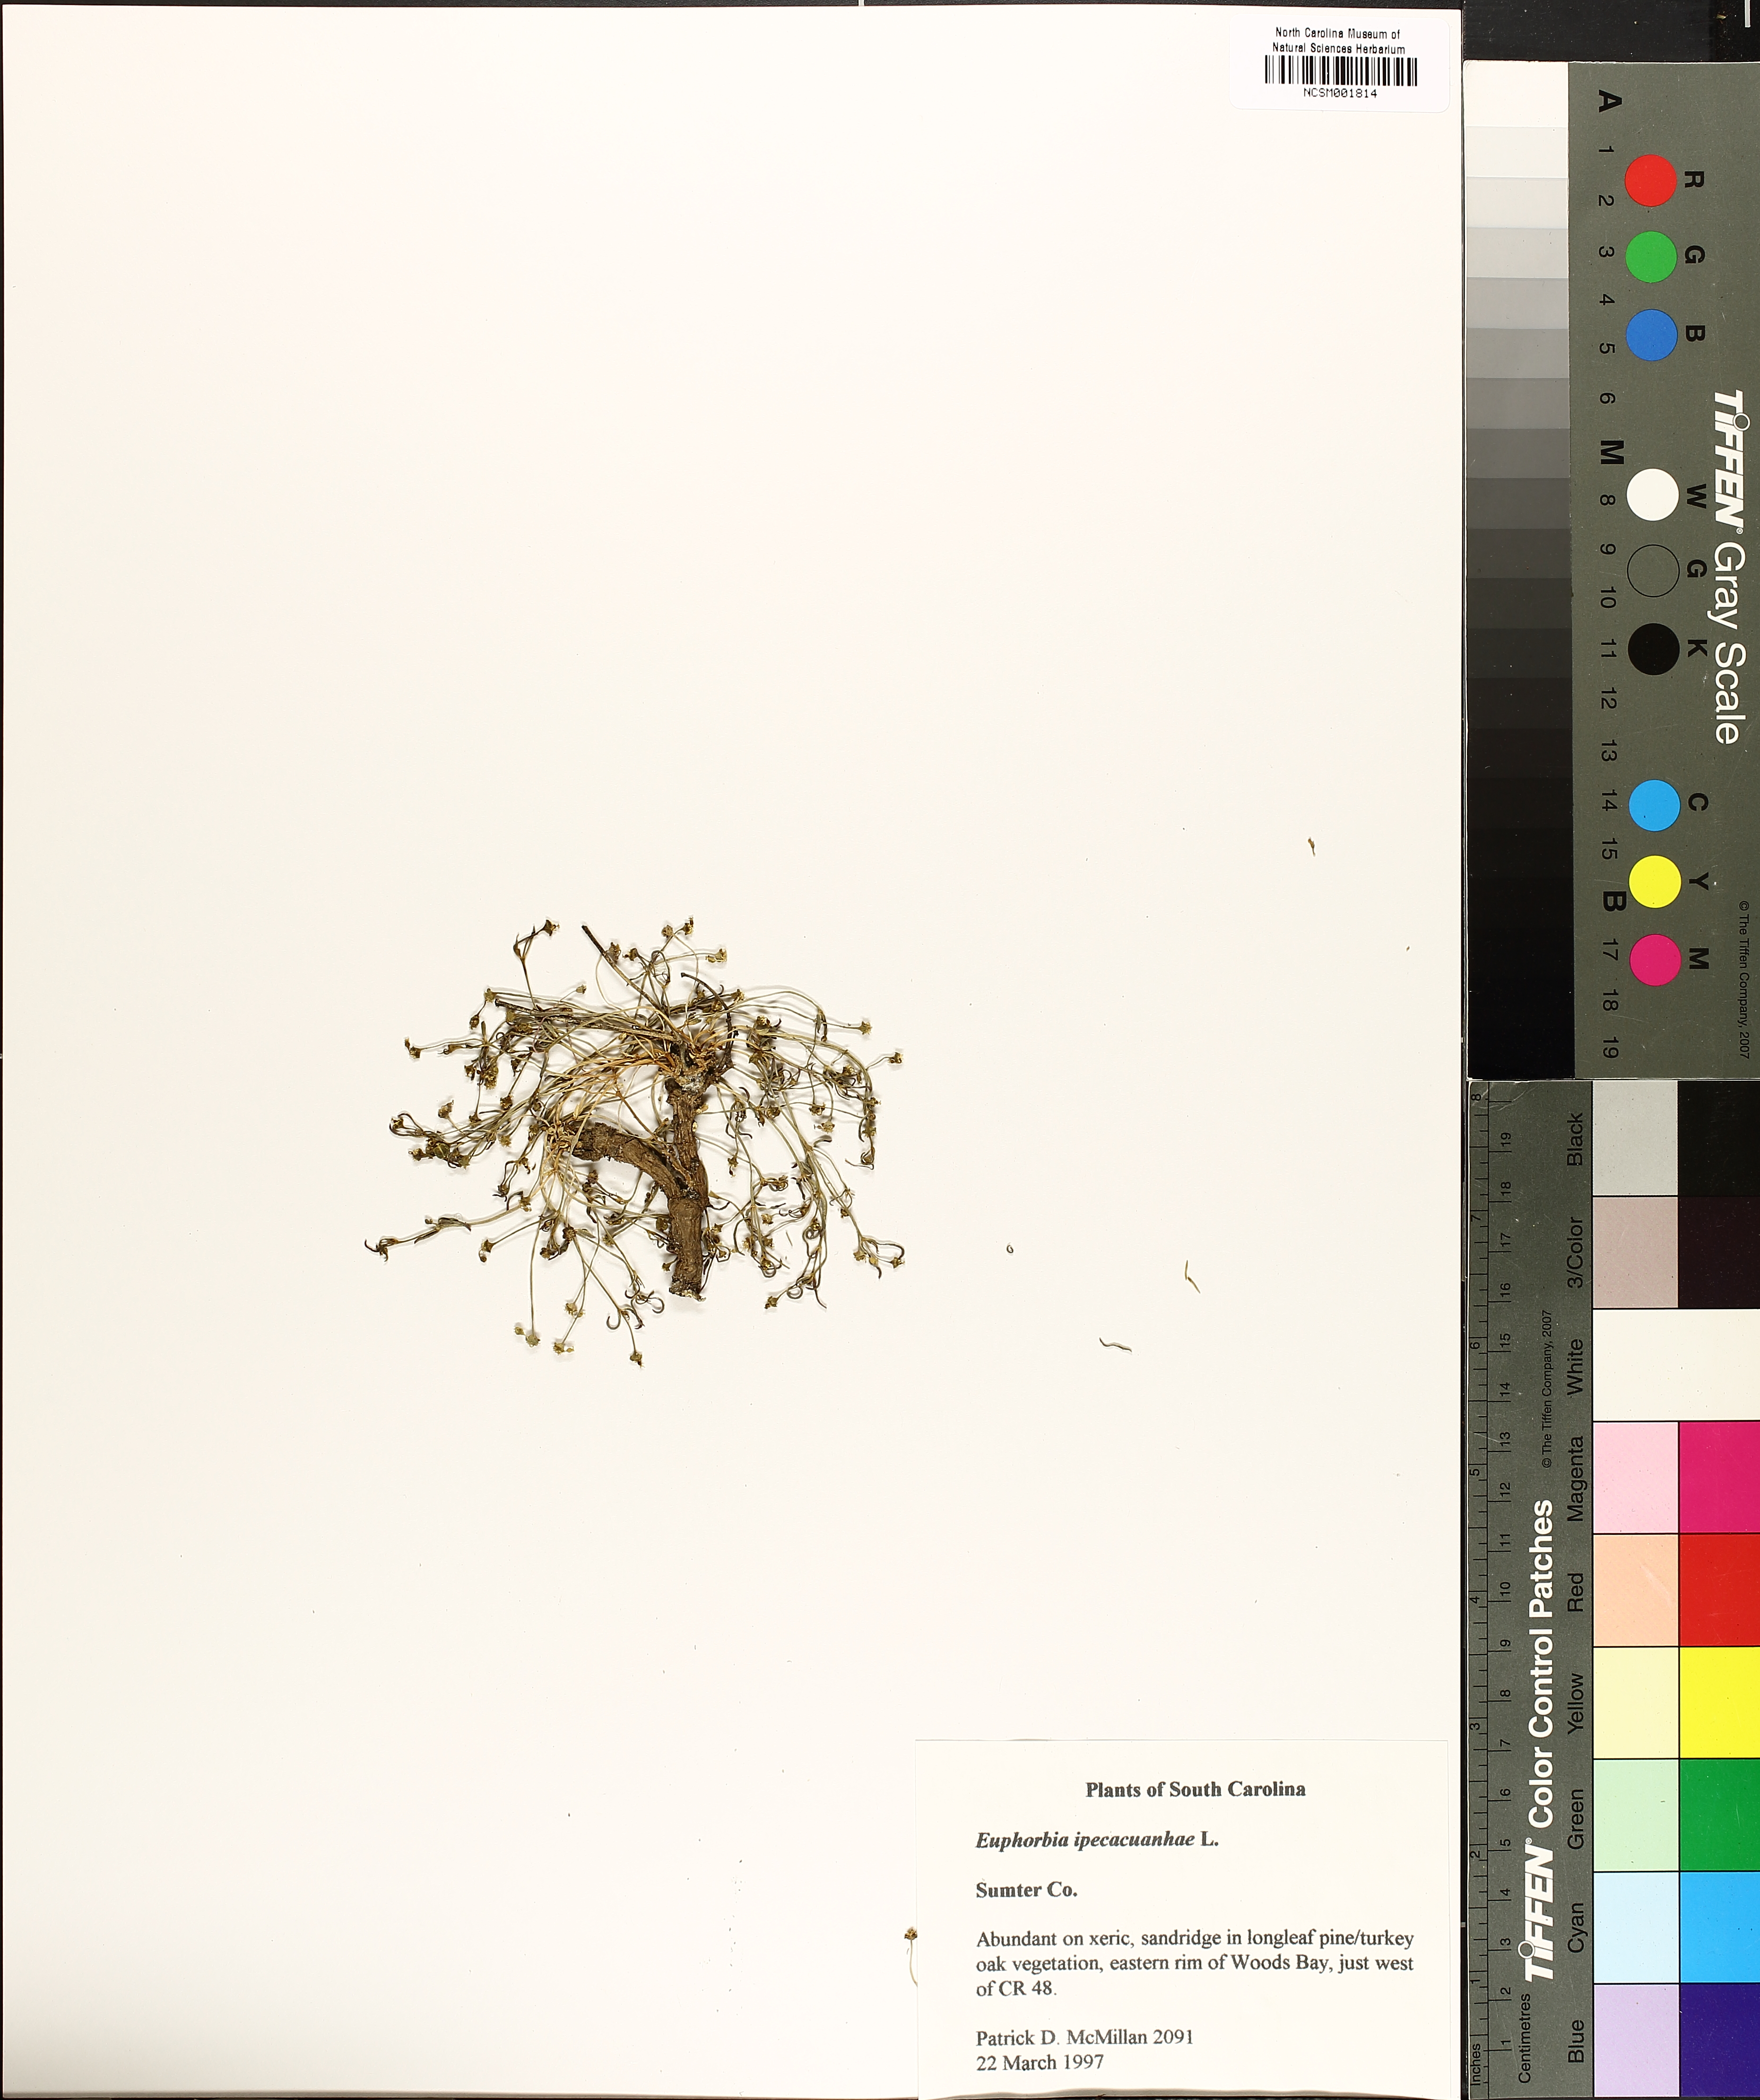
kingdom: Plantae
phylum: Tracheophyta
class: Magnoliopsida
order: Malpighiales
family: Euphorbiaceae
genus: Euphorbia
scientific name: Euphorbia ipecacuanhae
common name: Carolina ipecac
